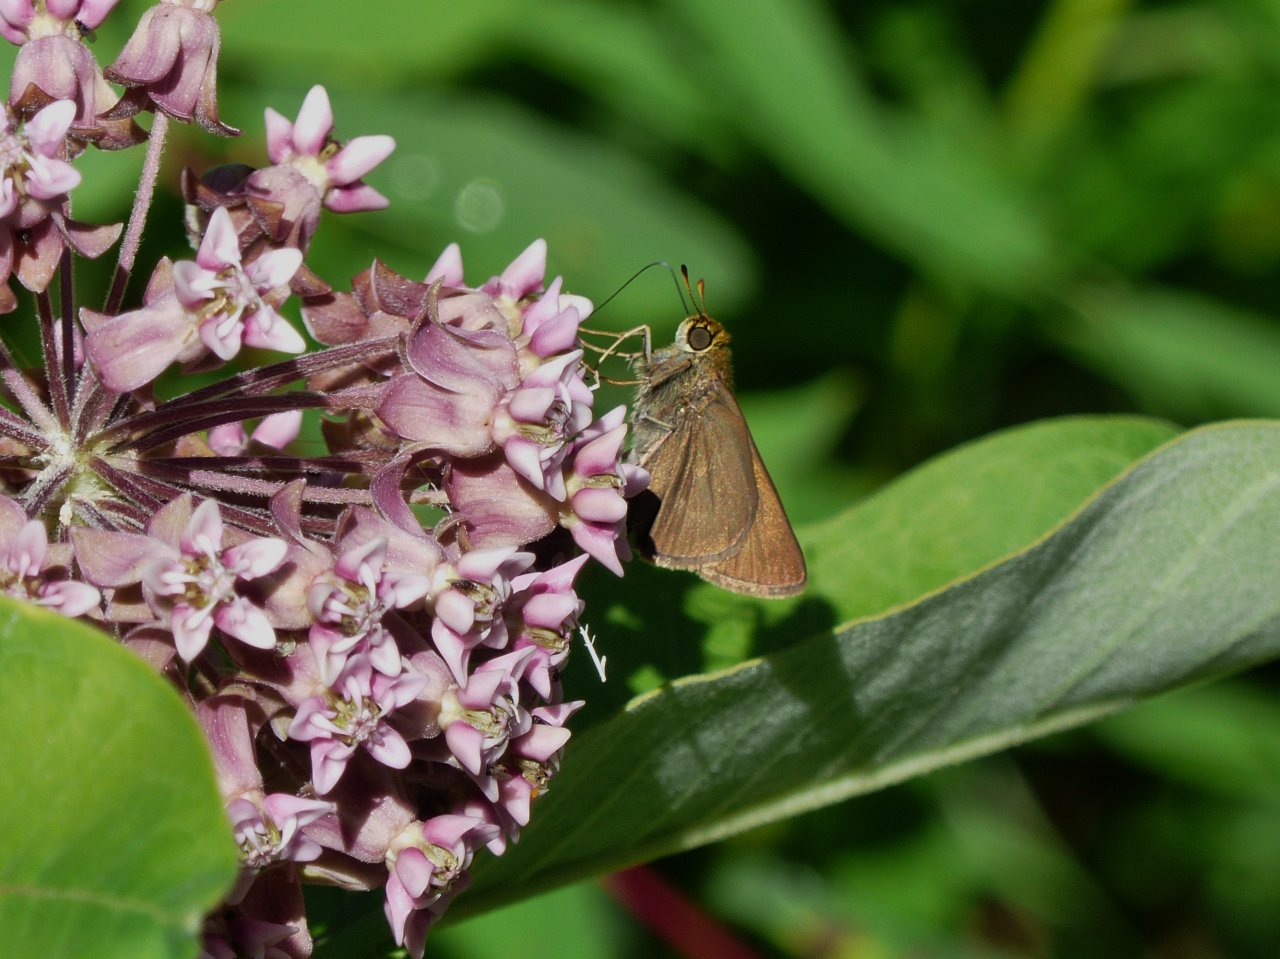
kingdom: Animalia
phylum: Arthropoda
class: Insecta
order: Lepidoptera
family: Hesperiidae
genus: Euphyes
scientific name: Euphyes vestris
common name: Dun Skipper
